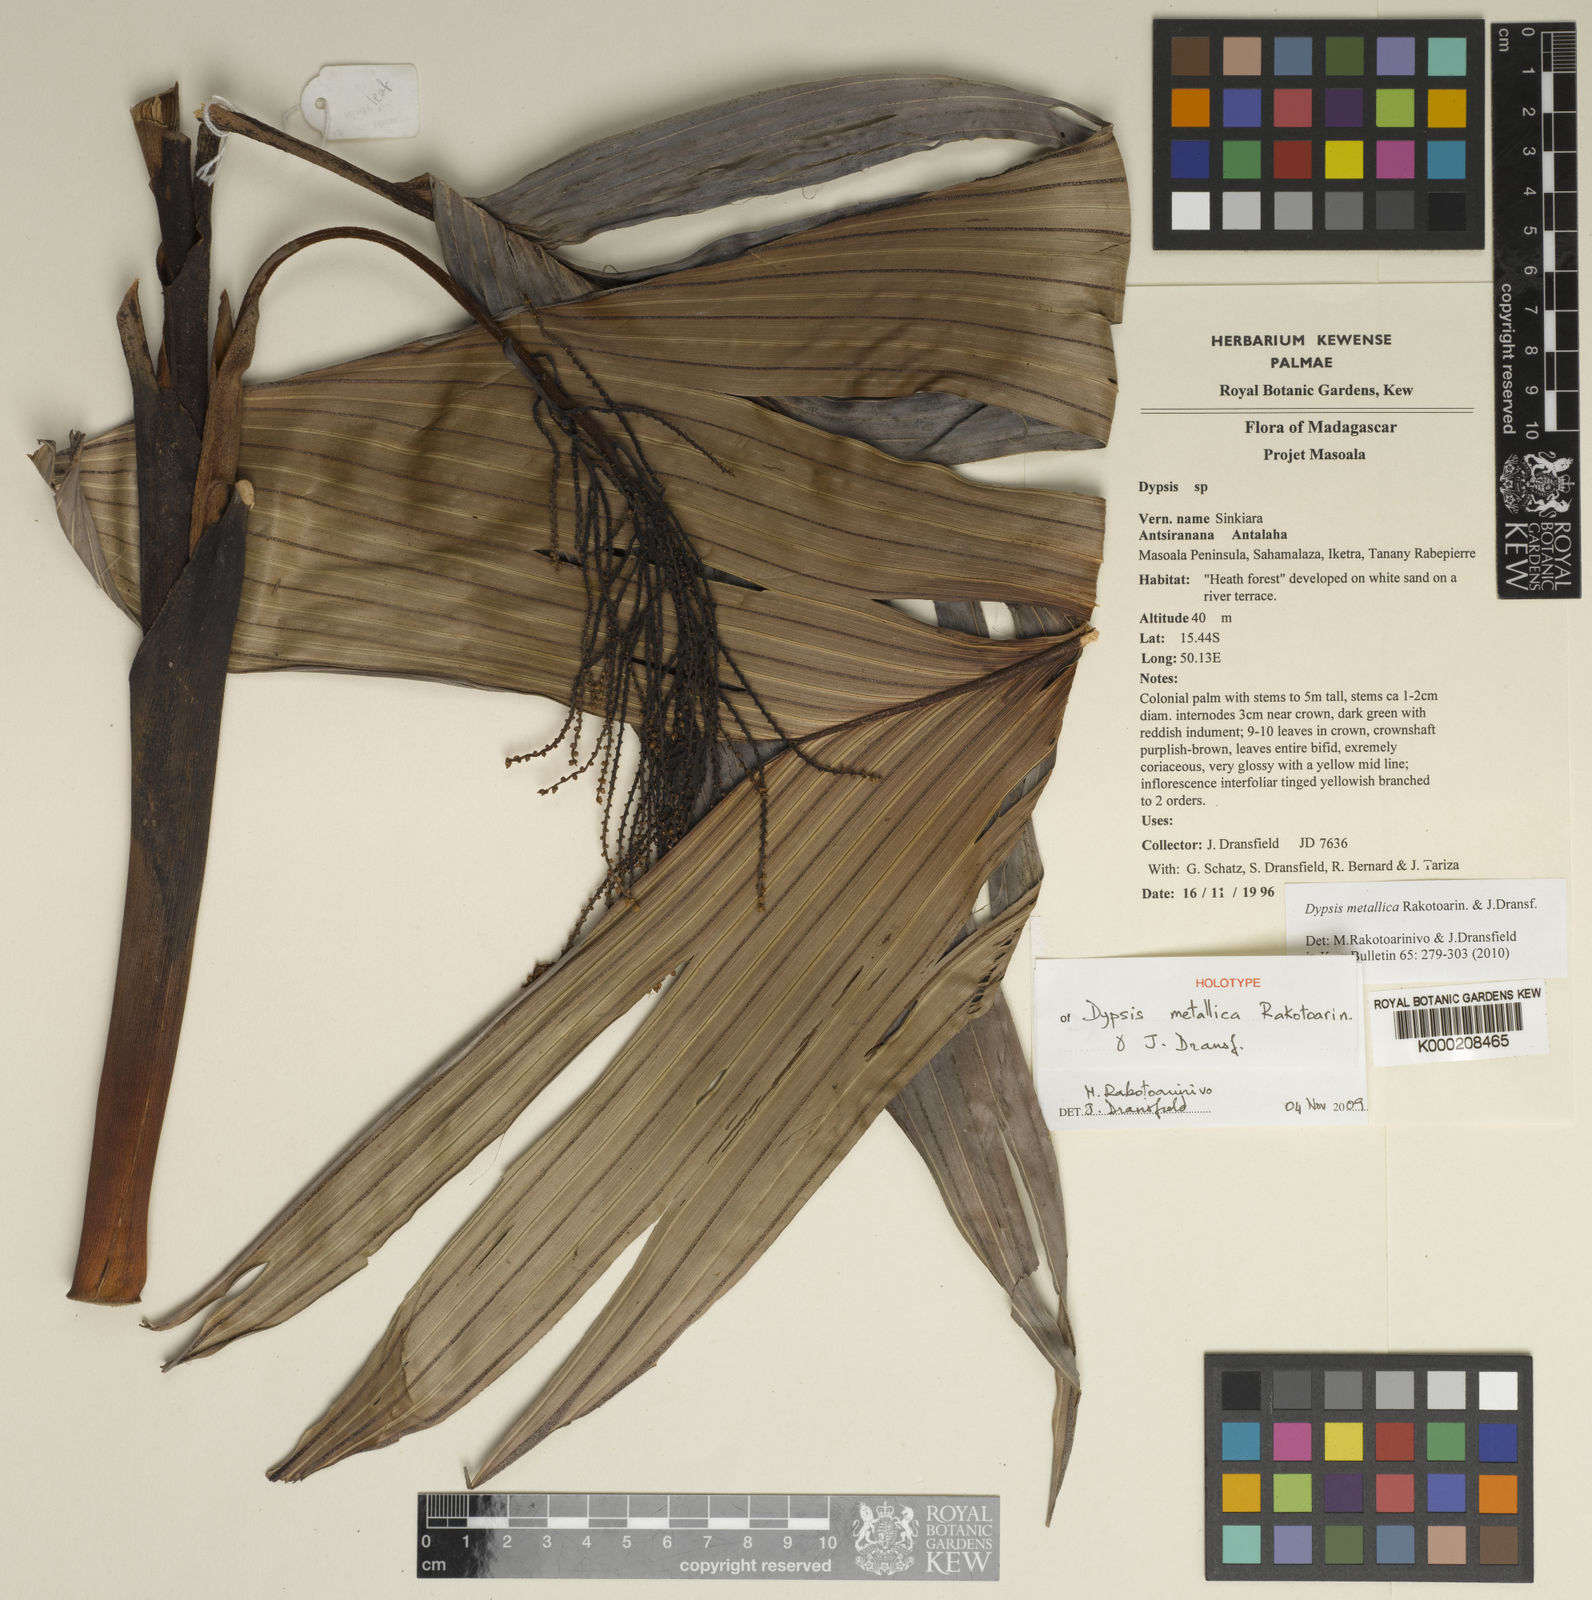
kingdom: Plantae
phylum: Tracheophyta
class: Liliopsida
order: Arecales
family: Arecaceae
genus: Dypsis
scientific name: Dypsis metallica
